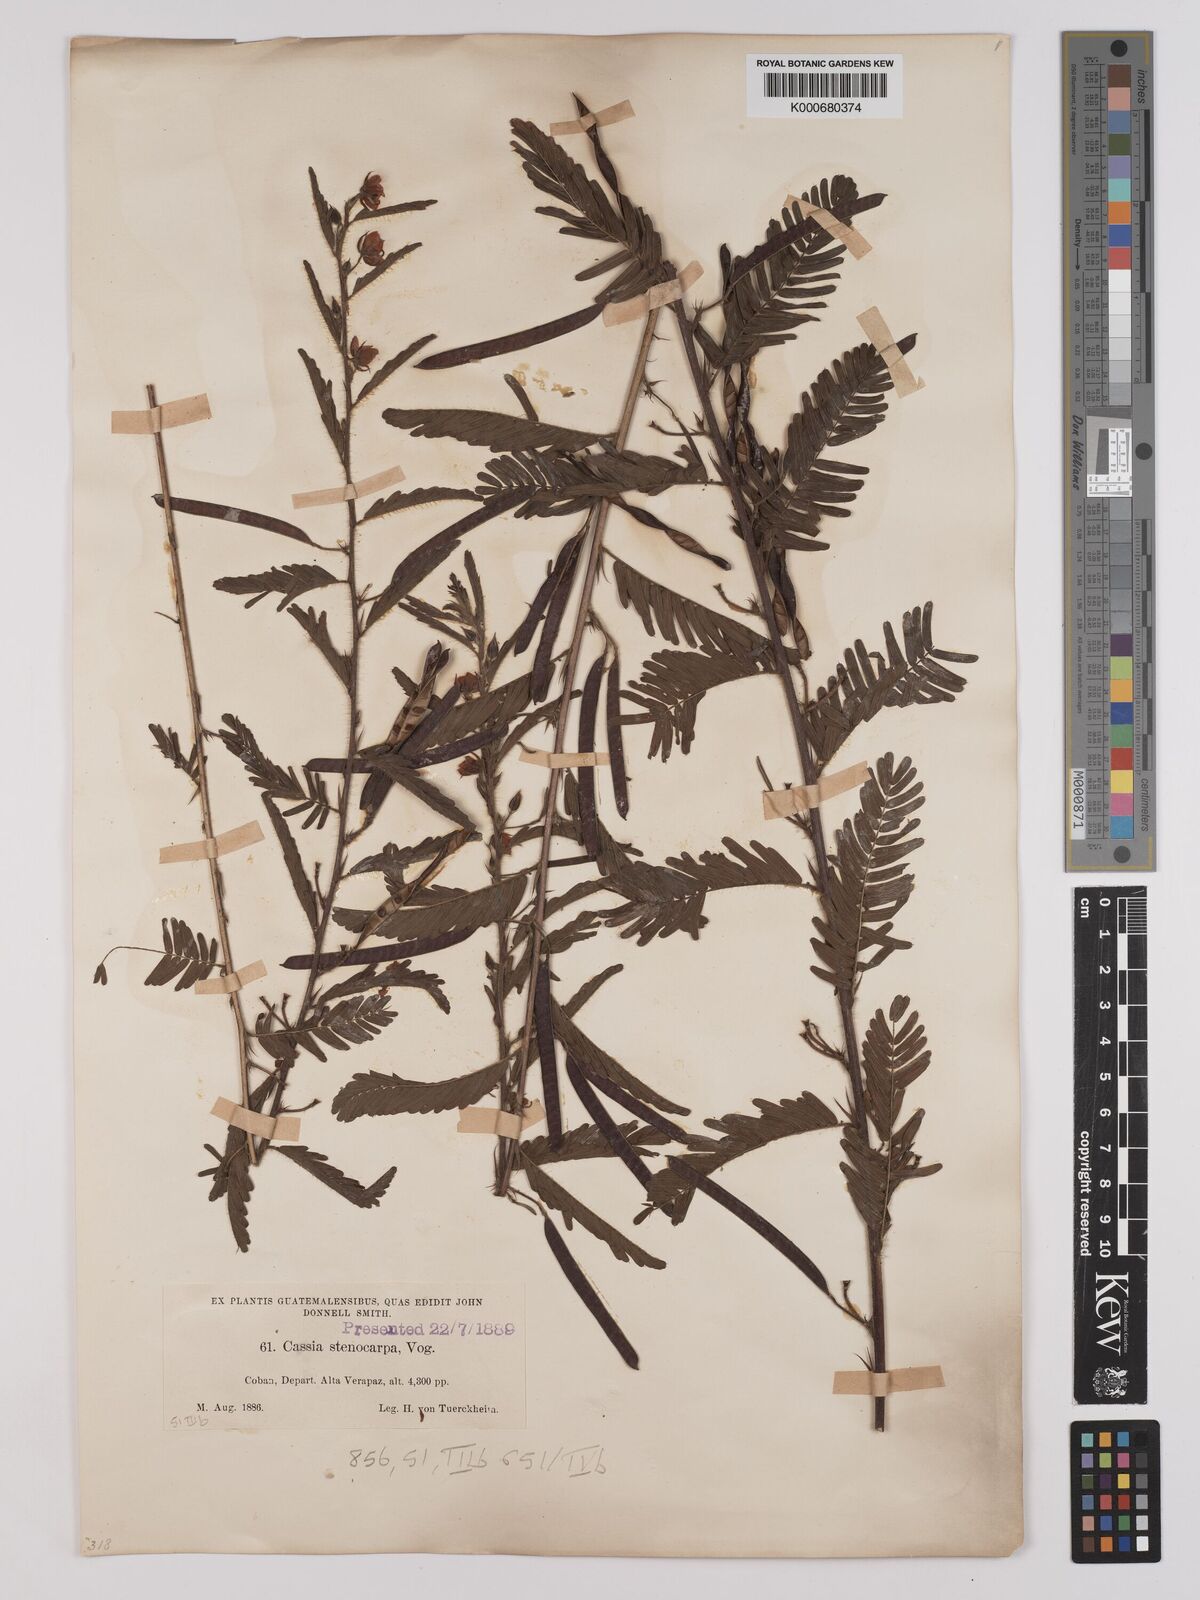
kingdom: Plantae
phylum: Tracheophyta
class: Magnoliopsida
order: Fabales
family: Fabaceae
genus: Chamaecrista
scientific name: Chamaecrista nictitans
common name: Sensitive cassia
